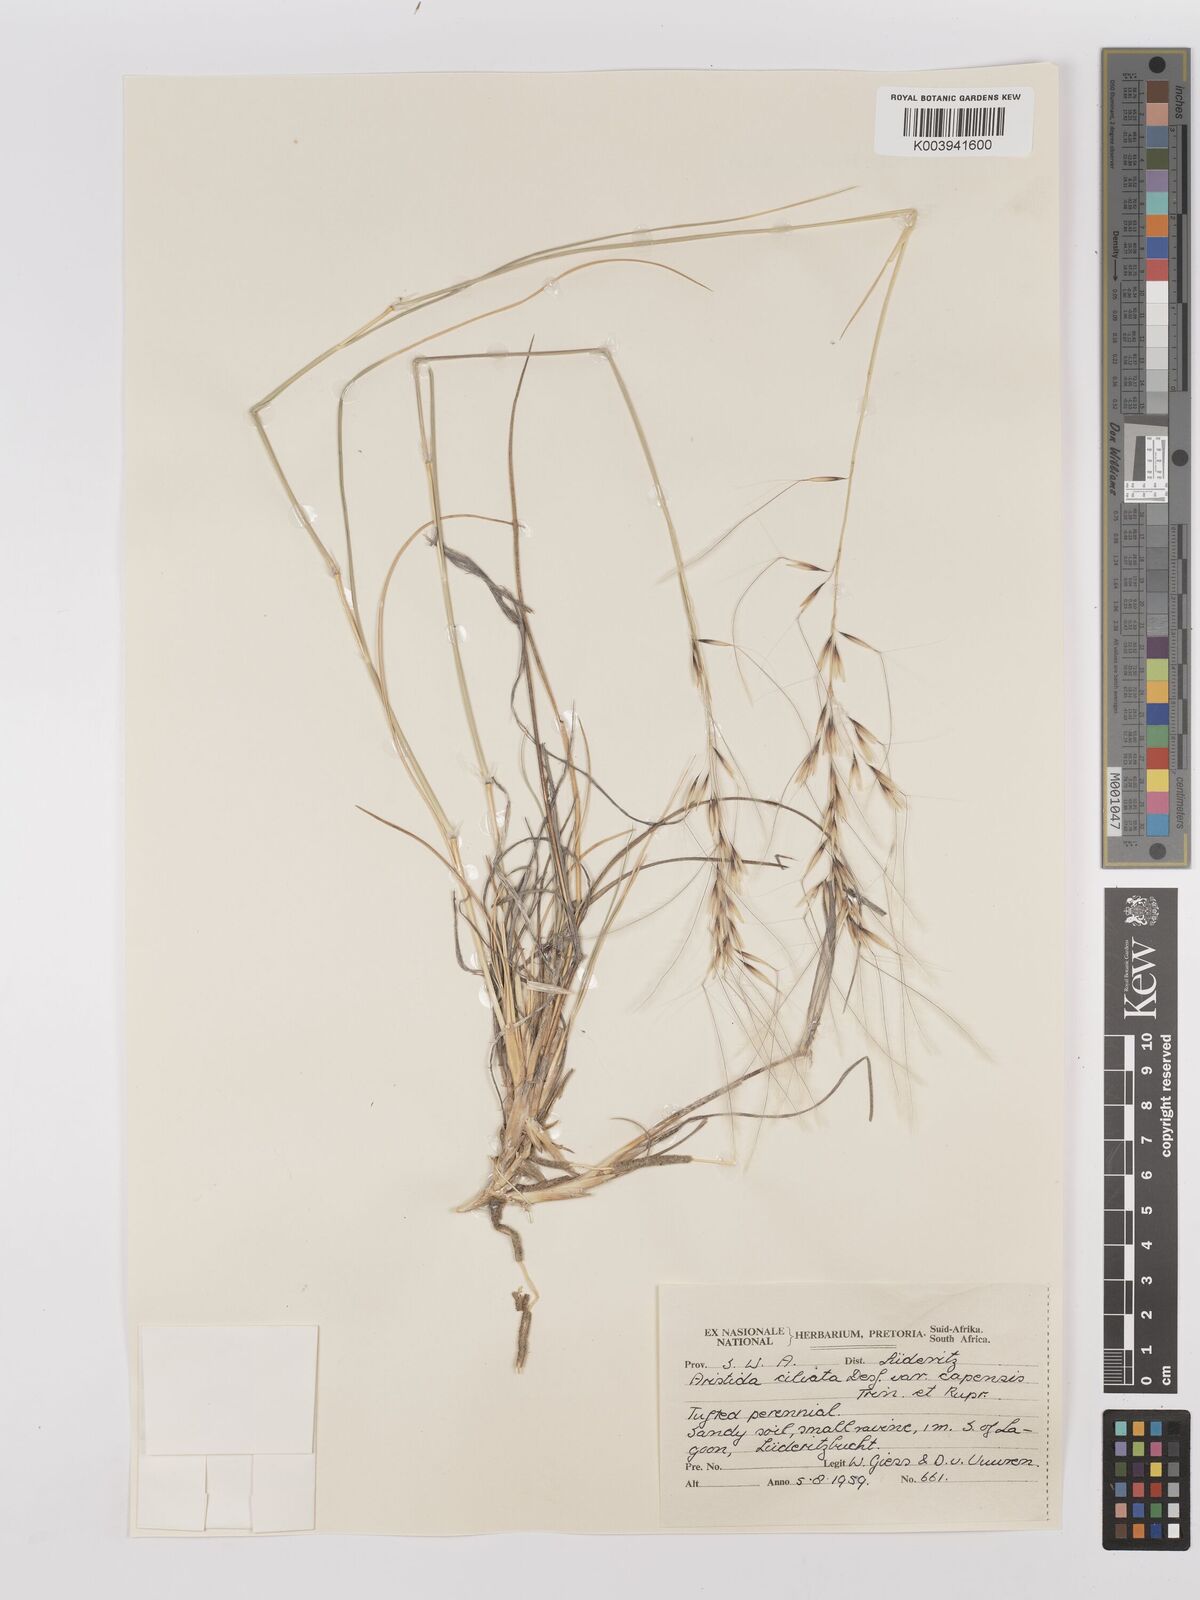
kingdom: Plantae
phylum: Tracheophyta
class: Liliopsida
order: Poales
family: Poaceae
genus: Stipagrostis
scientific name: Stipagrostis ciliata
